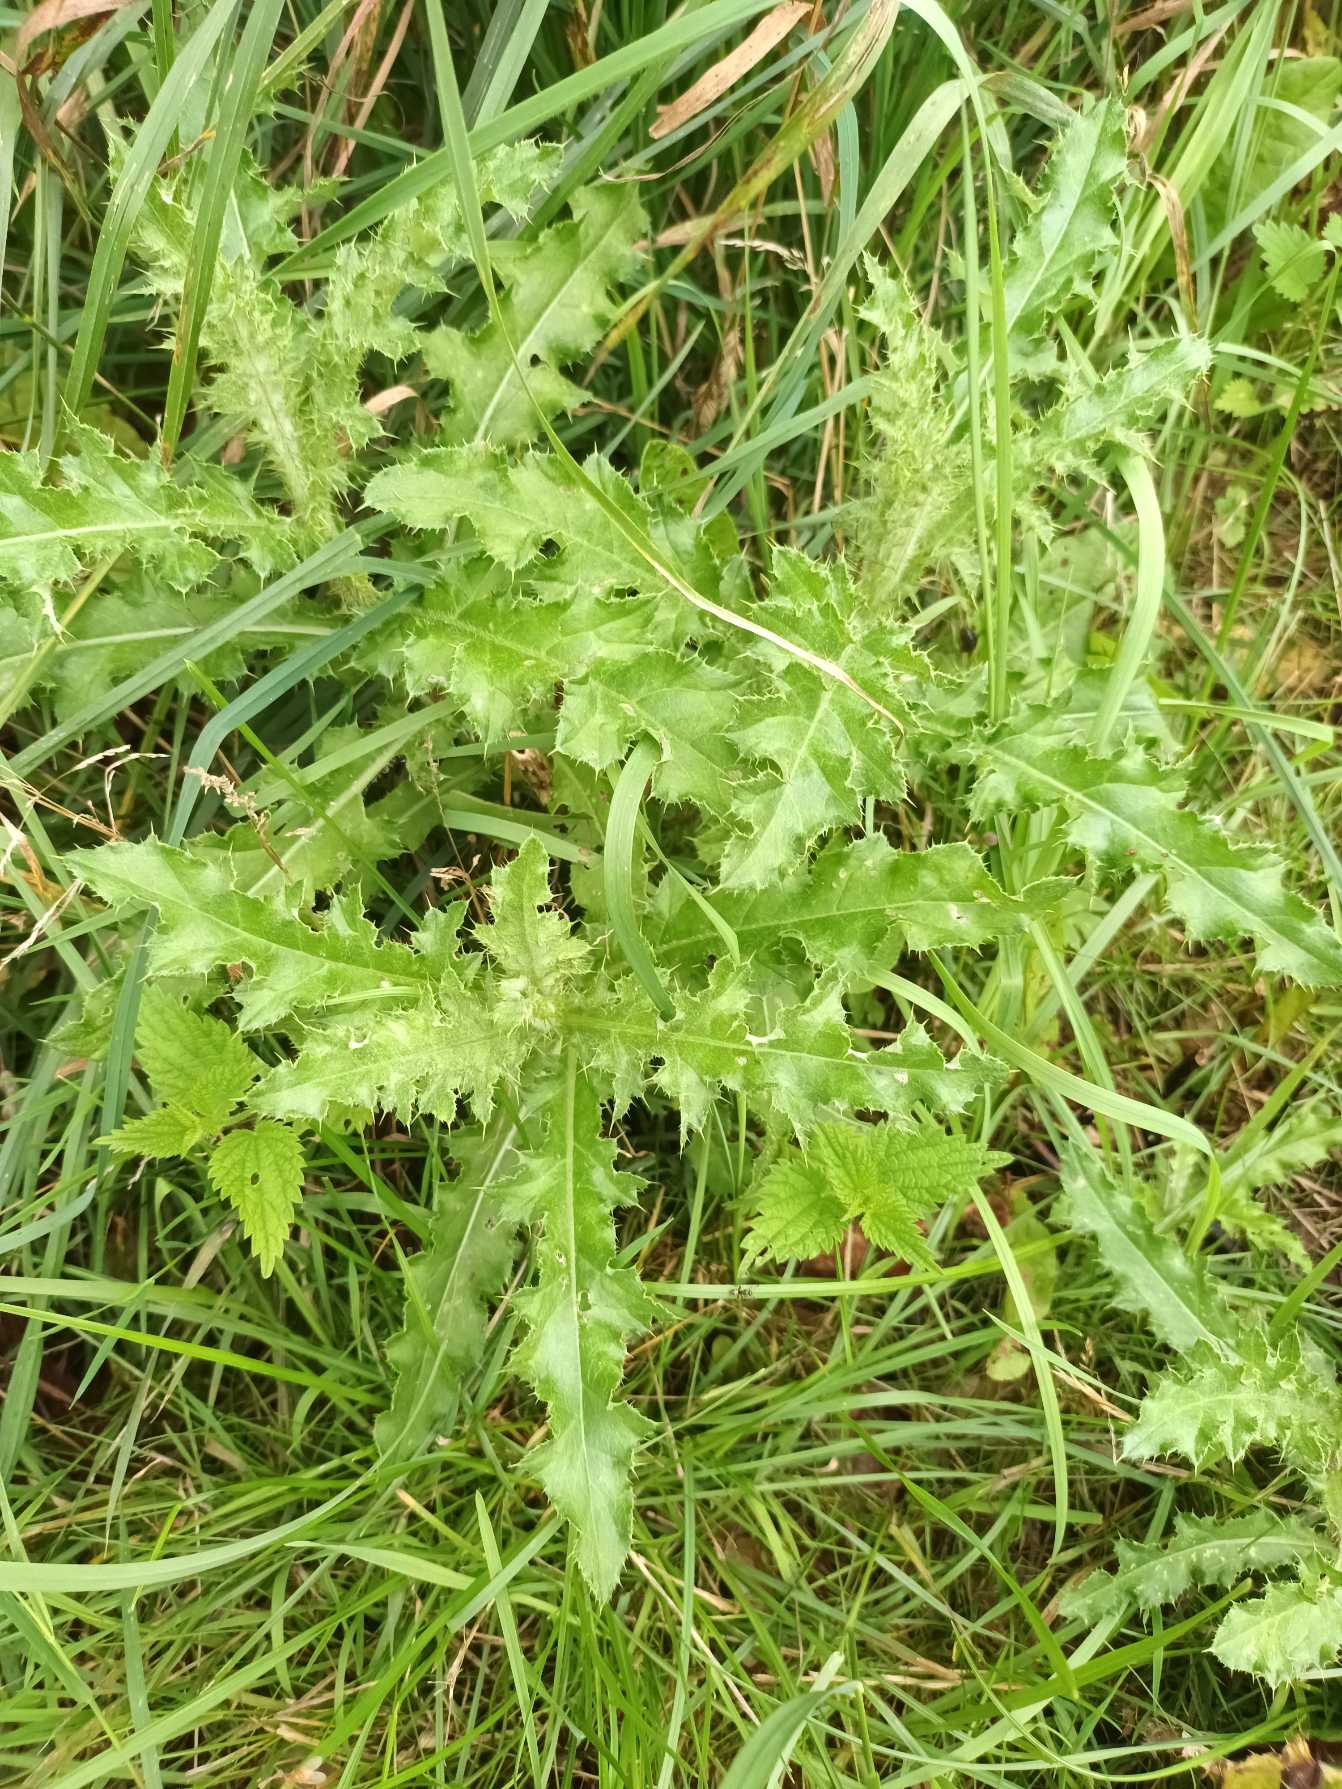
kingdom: Plantae
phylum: Tracheophyta
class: Magnoliopsida
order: Asterales
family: Asteraceae
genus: Cirsium
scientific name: Cirsium arvense
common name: Ager-tidsel
